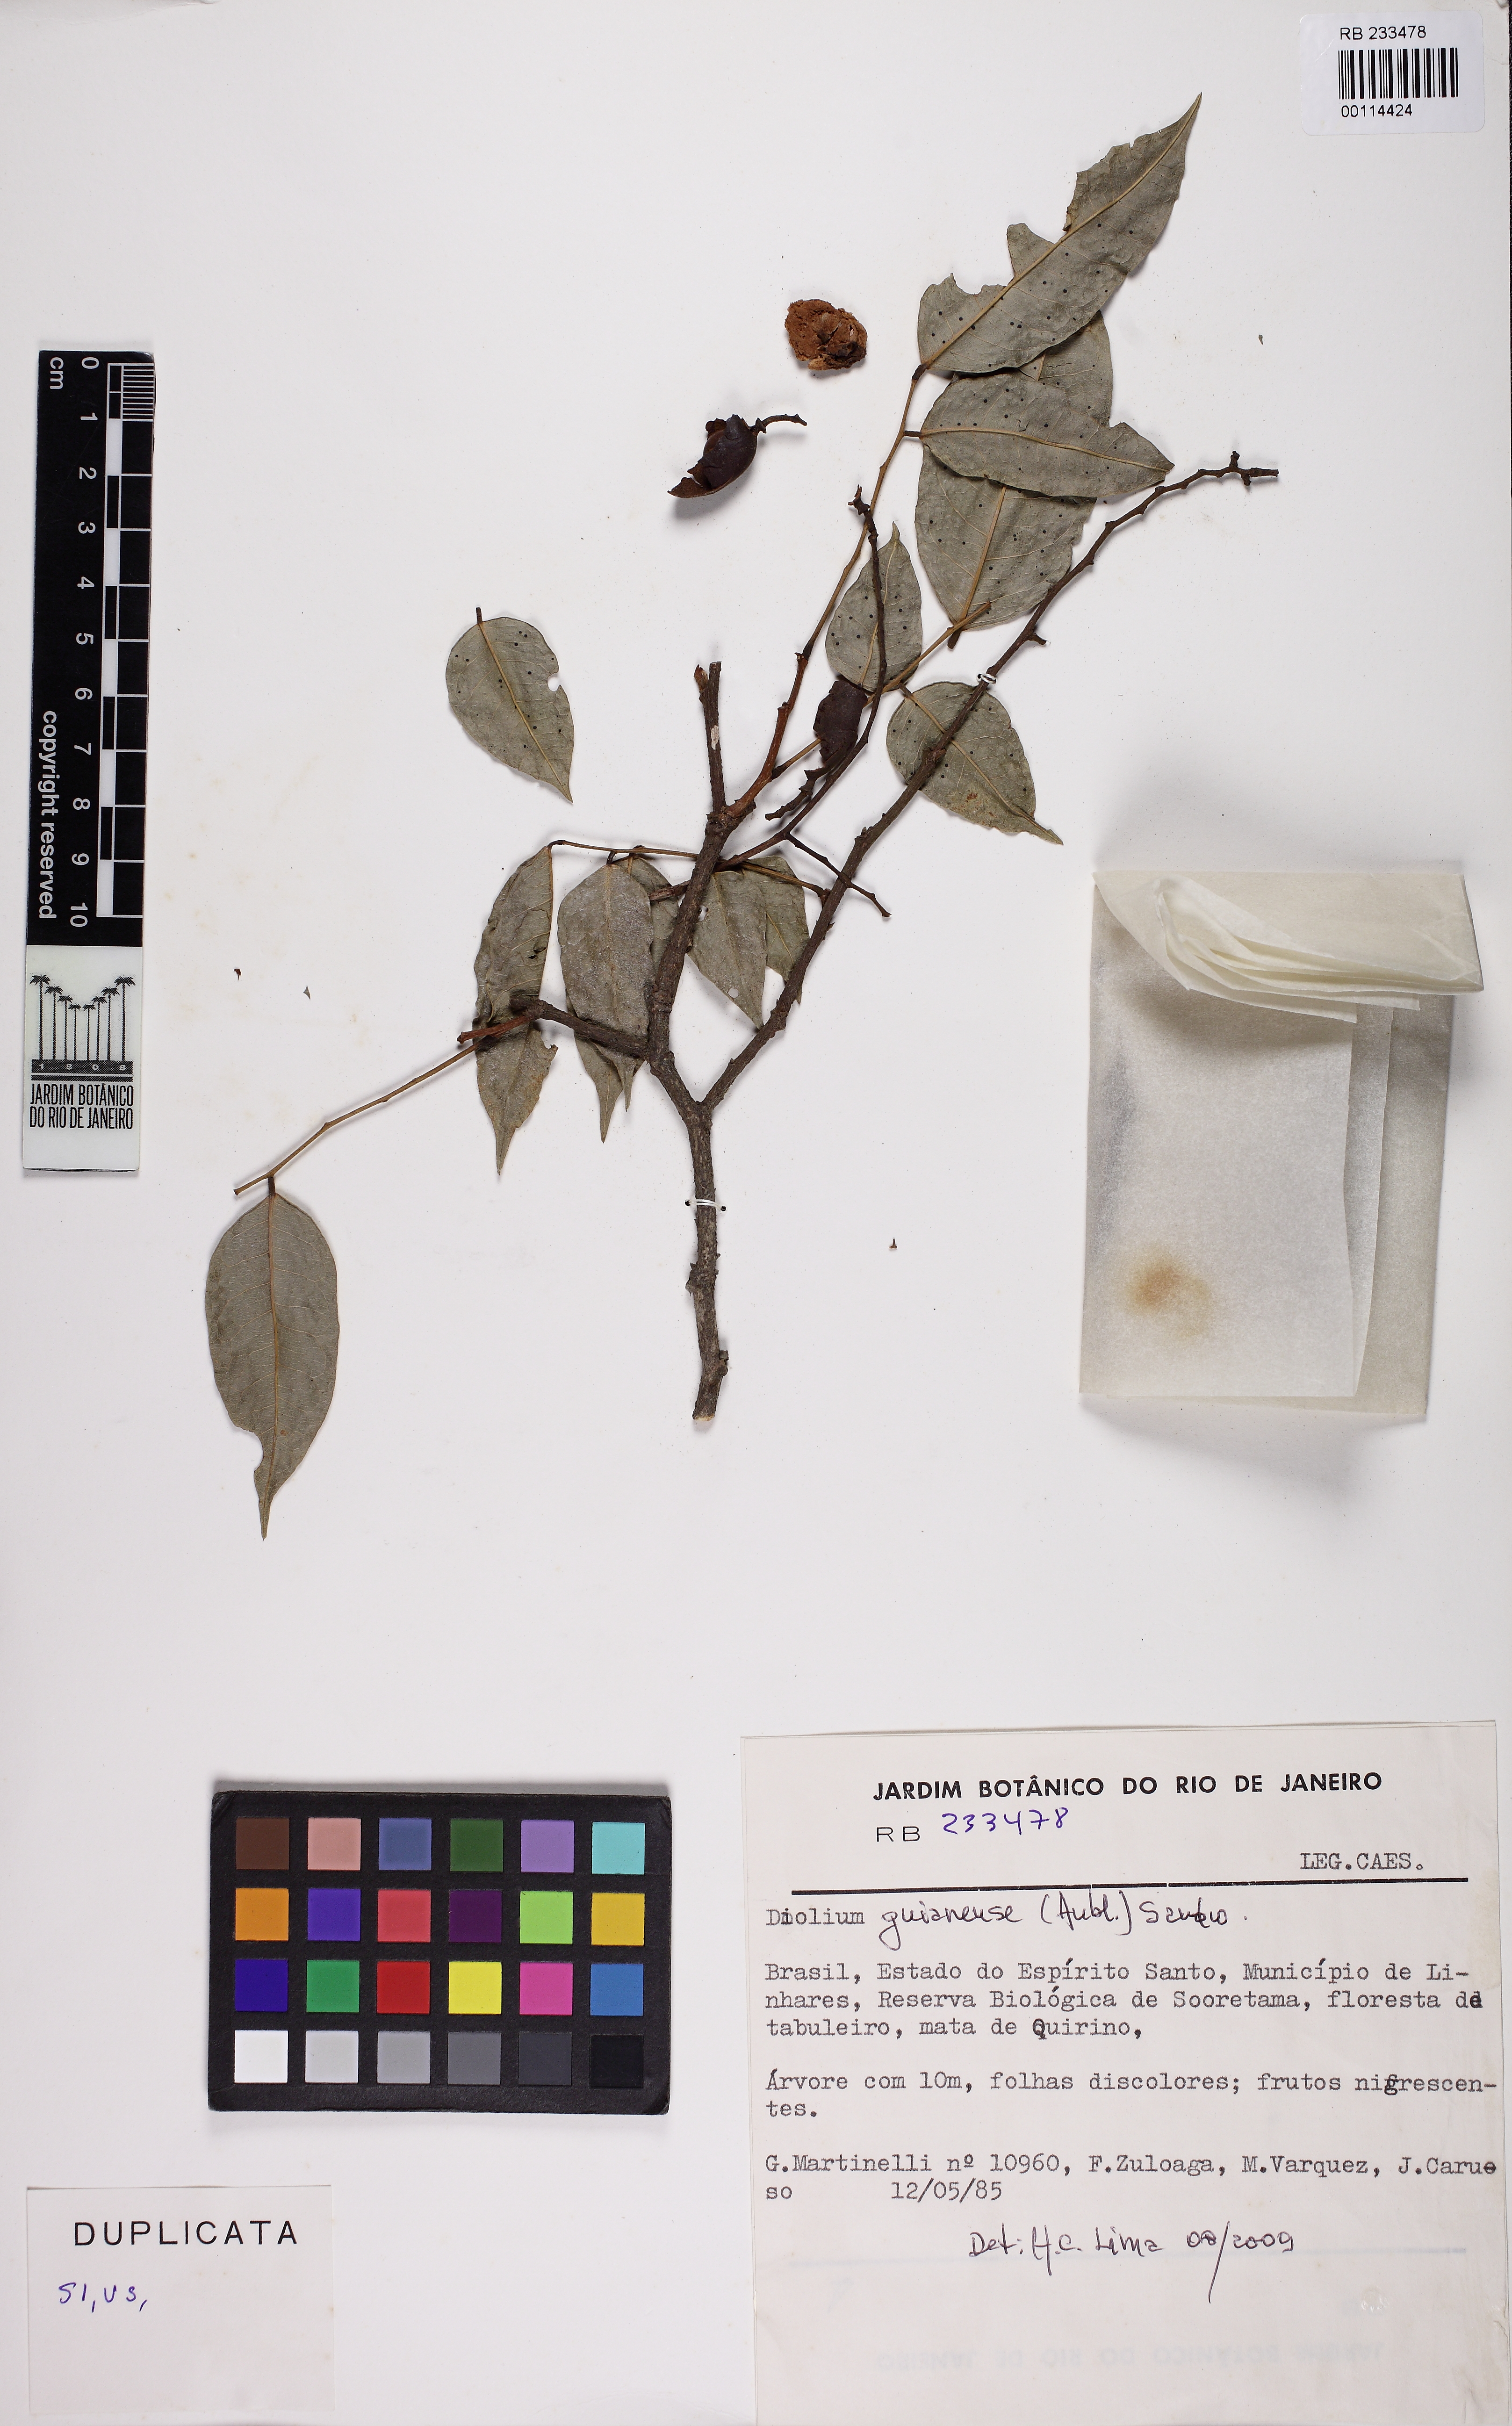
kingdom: Plantae
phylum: Tracheophyta
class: Magnoliopsida
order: Fabales
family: Fabaceae
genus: Dialium
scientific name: Dialium
